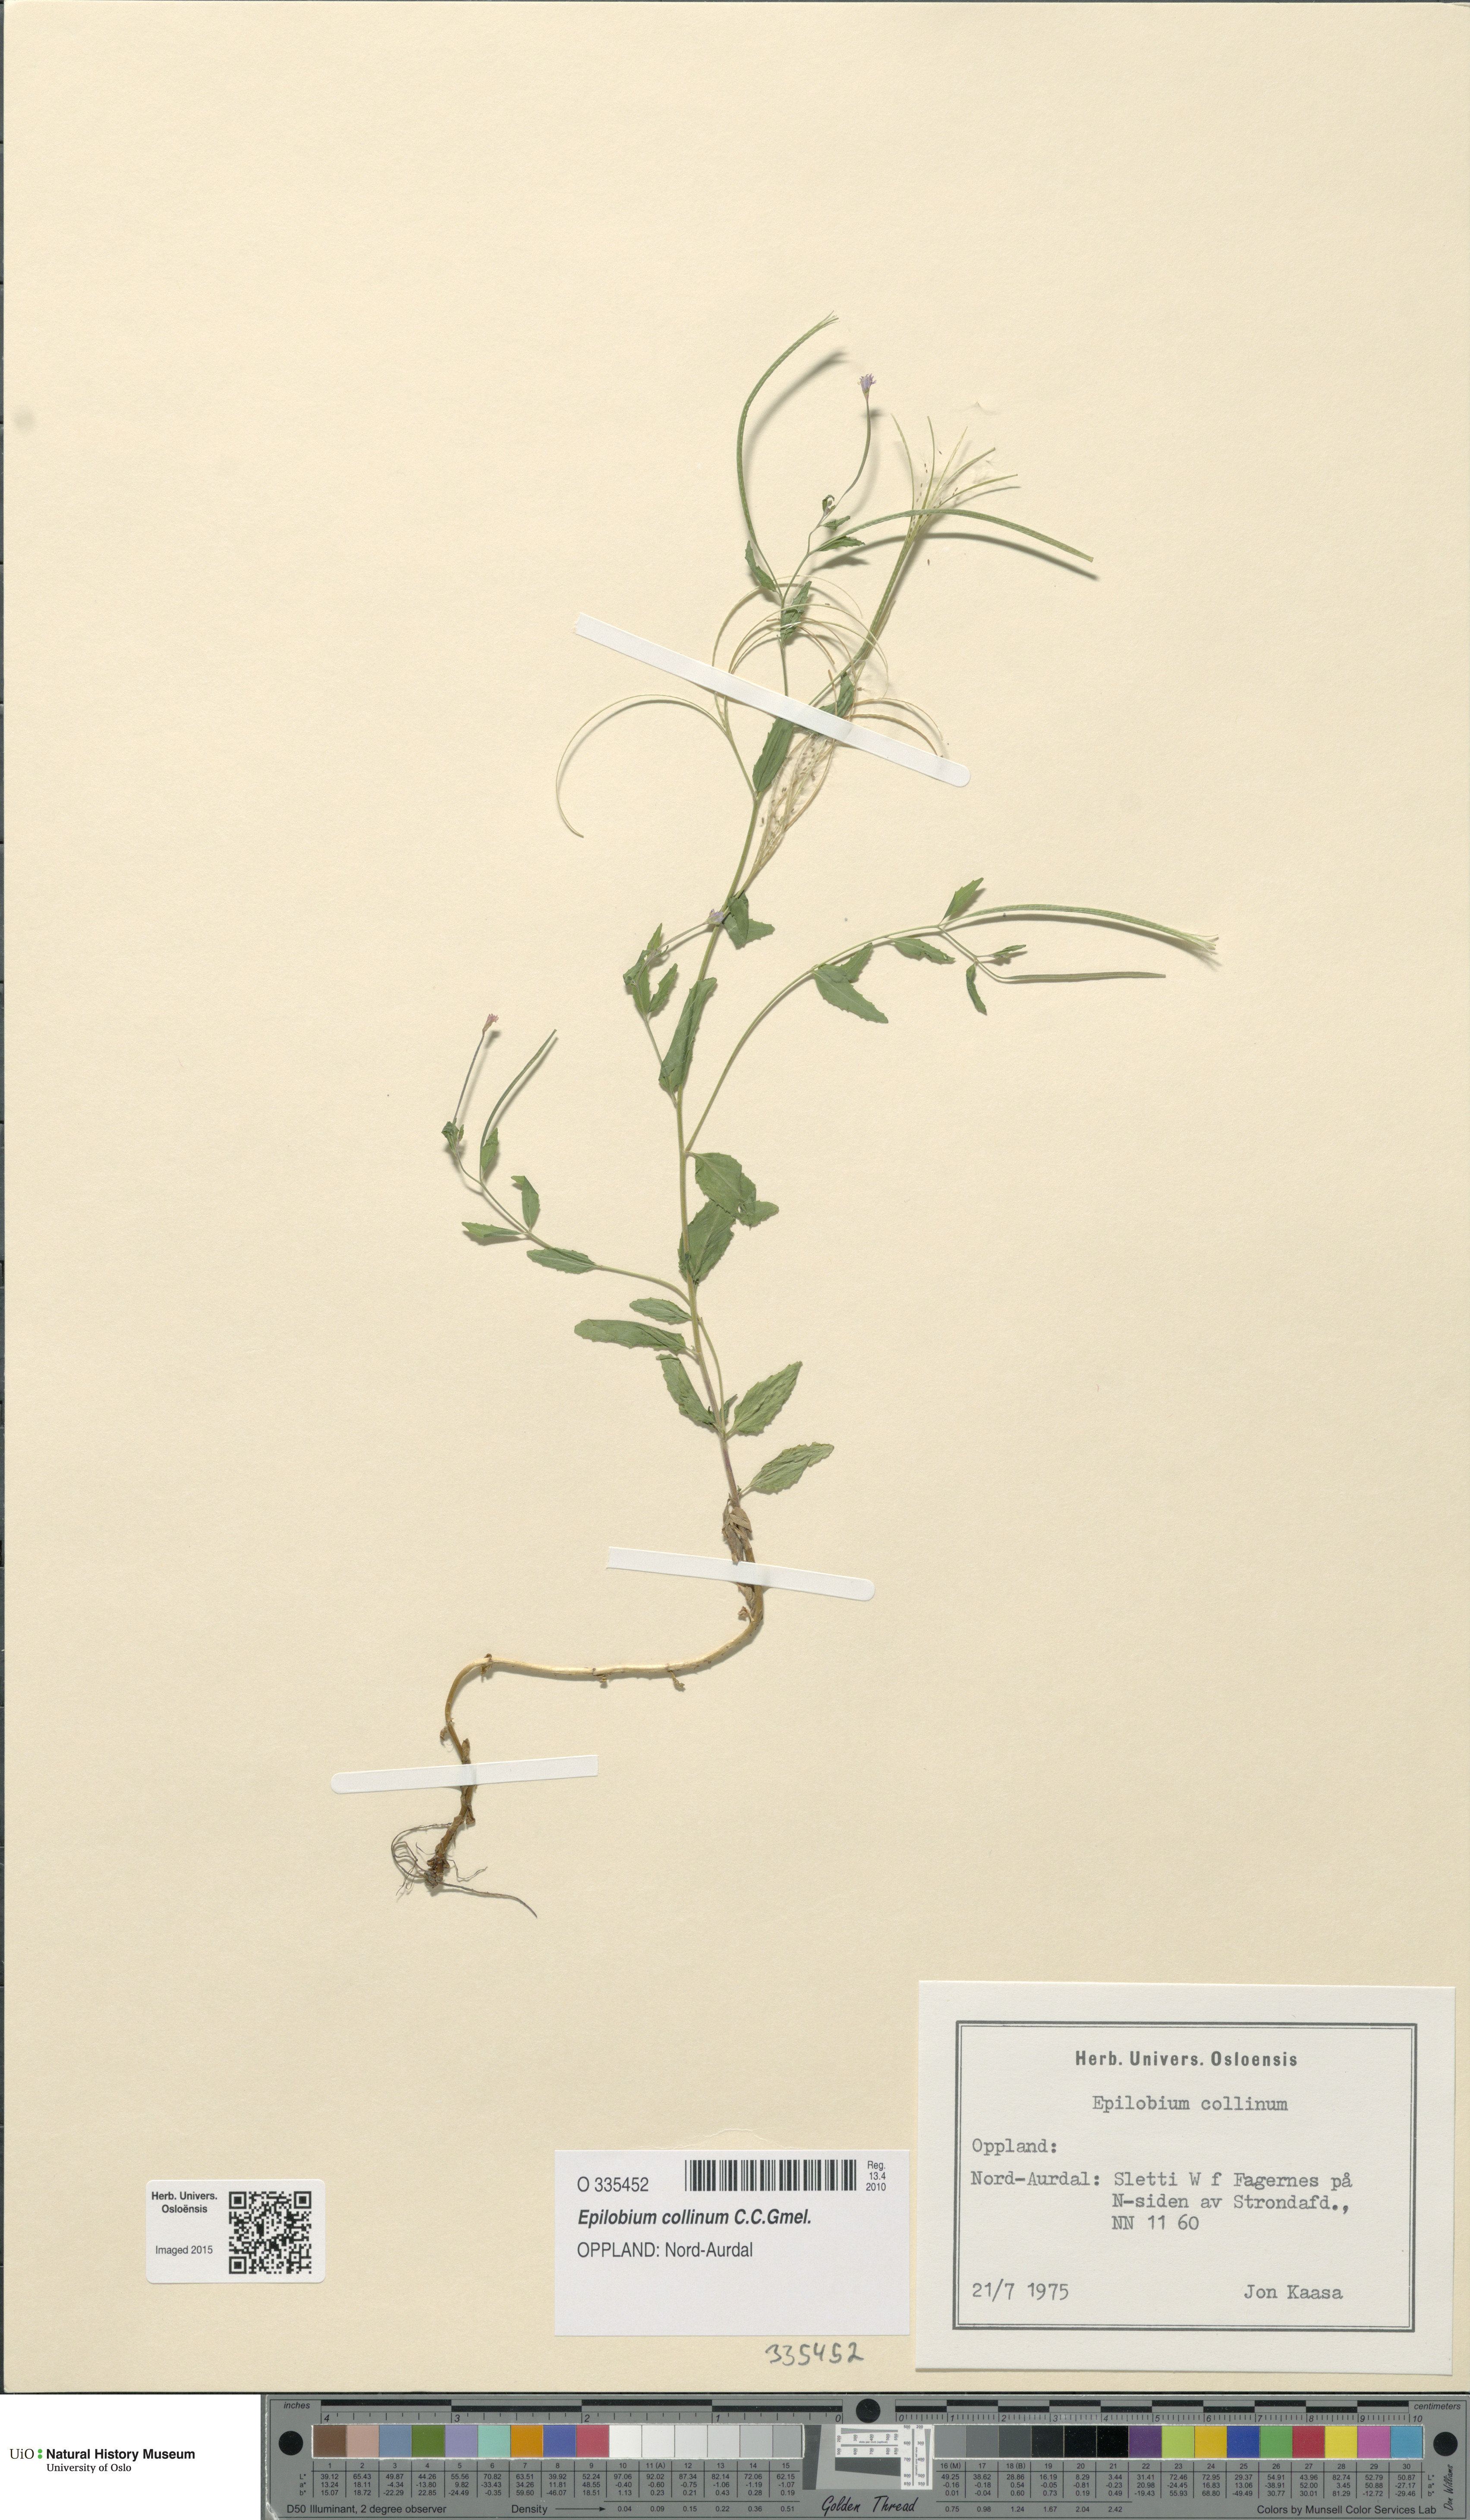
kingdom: Plantae
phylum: Tracheophyta
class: Magnoliopsida
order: Myrtales
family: Onagraceae
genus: Epilobium
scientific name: Epilobium collinum
